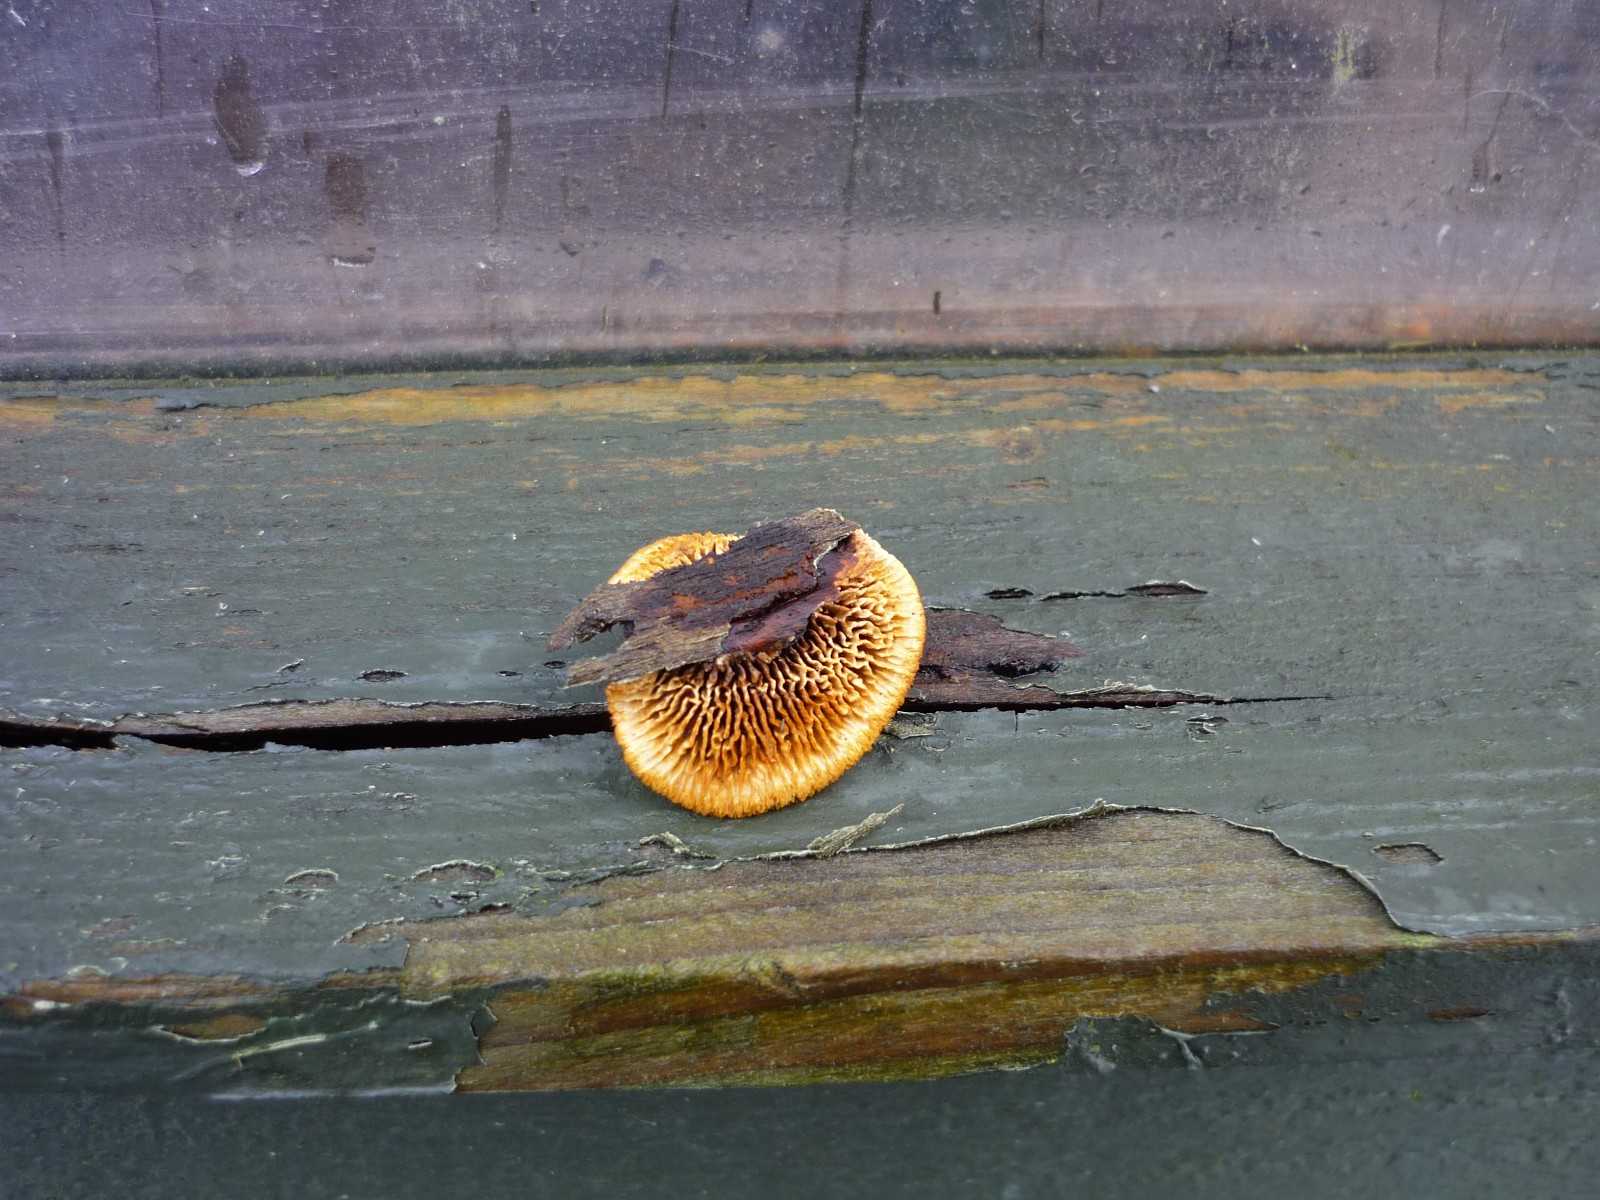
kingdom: Fungi
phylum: Basidiomycota
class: Agaricomycetes
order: Gloeophyllales
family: Gloeophyllaceae
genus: Gloeophyllum
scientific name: Gloeophyllum sepiarium
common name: fyrre-korkhat
